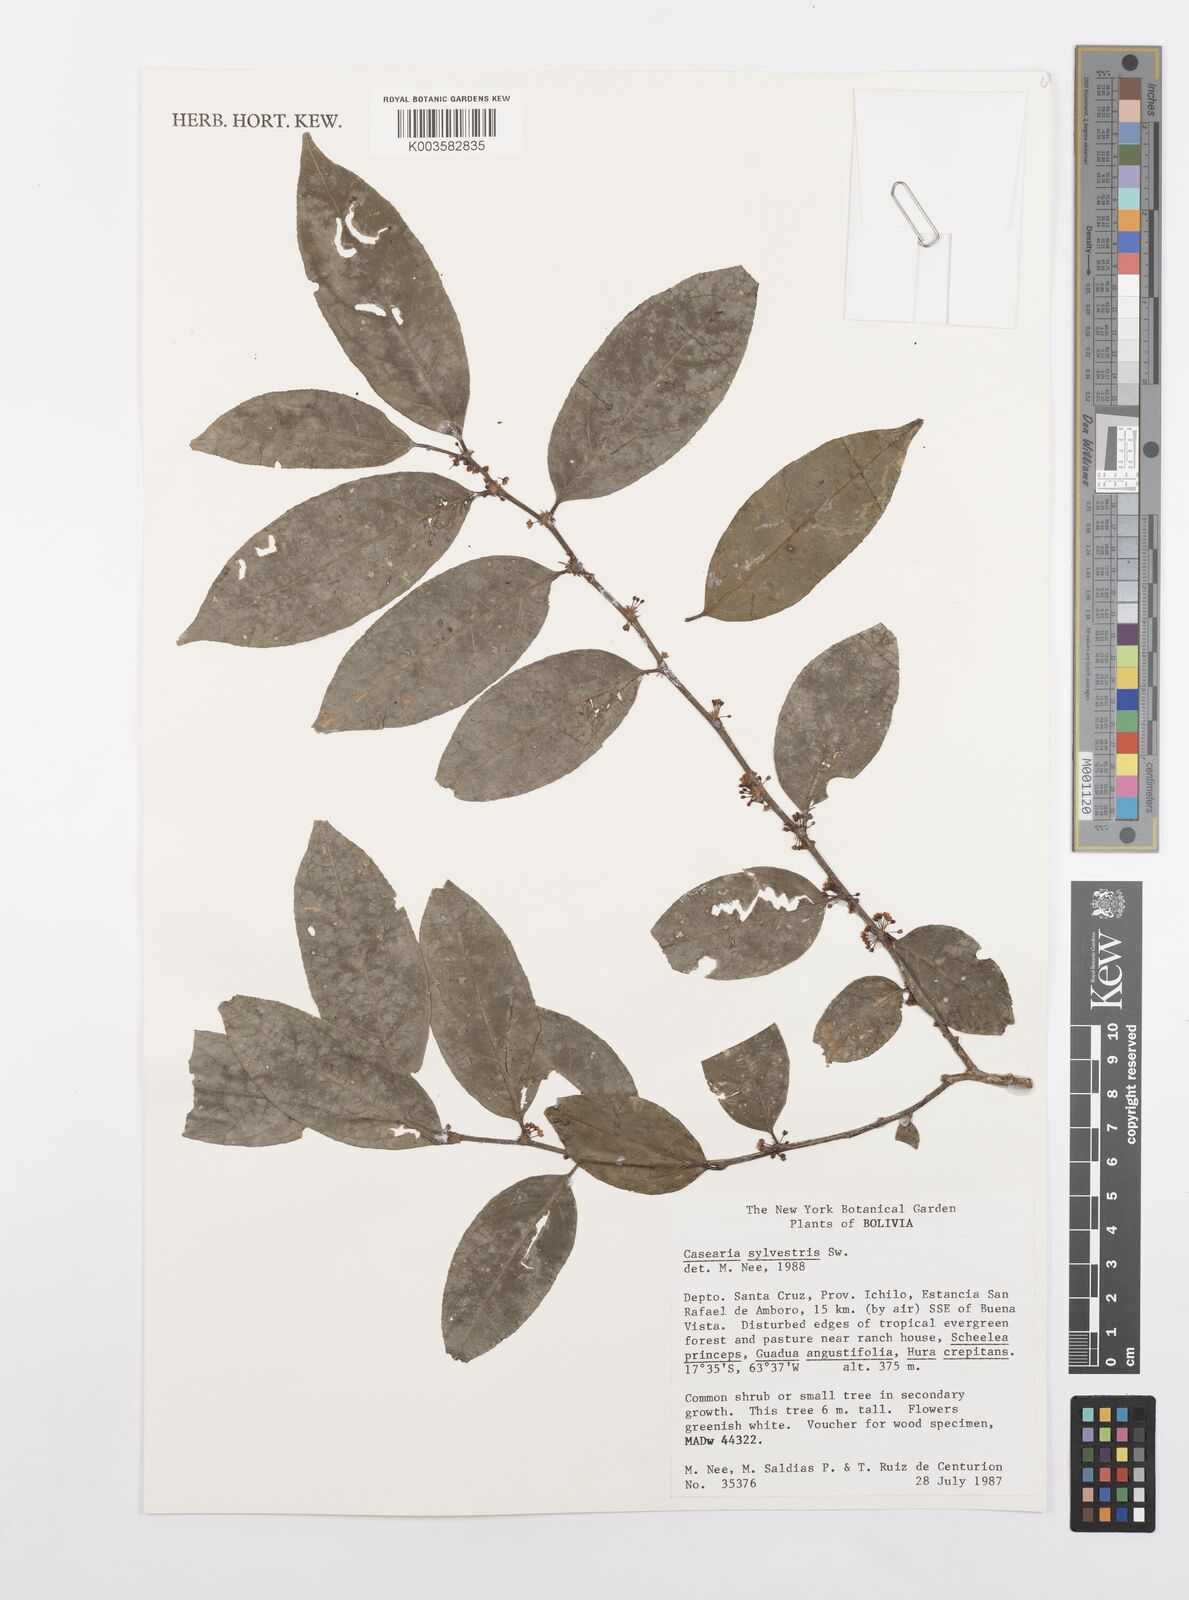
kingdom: Plantae
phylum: Tracheophyta
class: Magnoliopsida
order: Malpighiales
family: Salicaceae
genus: Casearia
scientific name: Casearia sylvestris
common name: Wild sage
